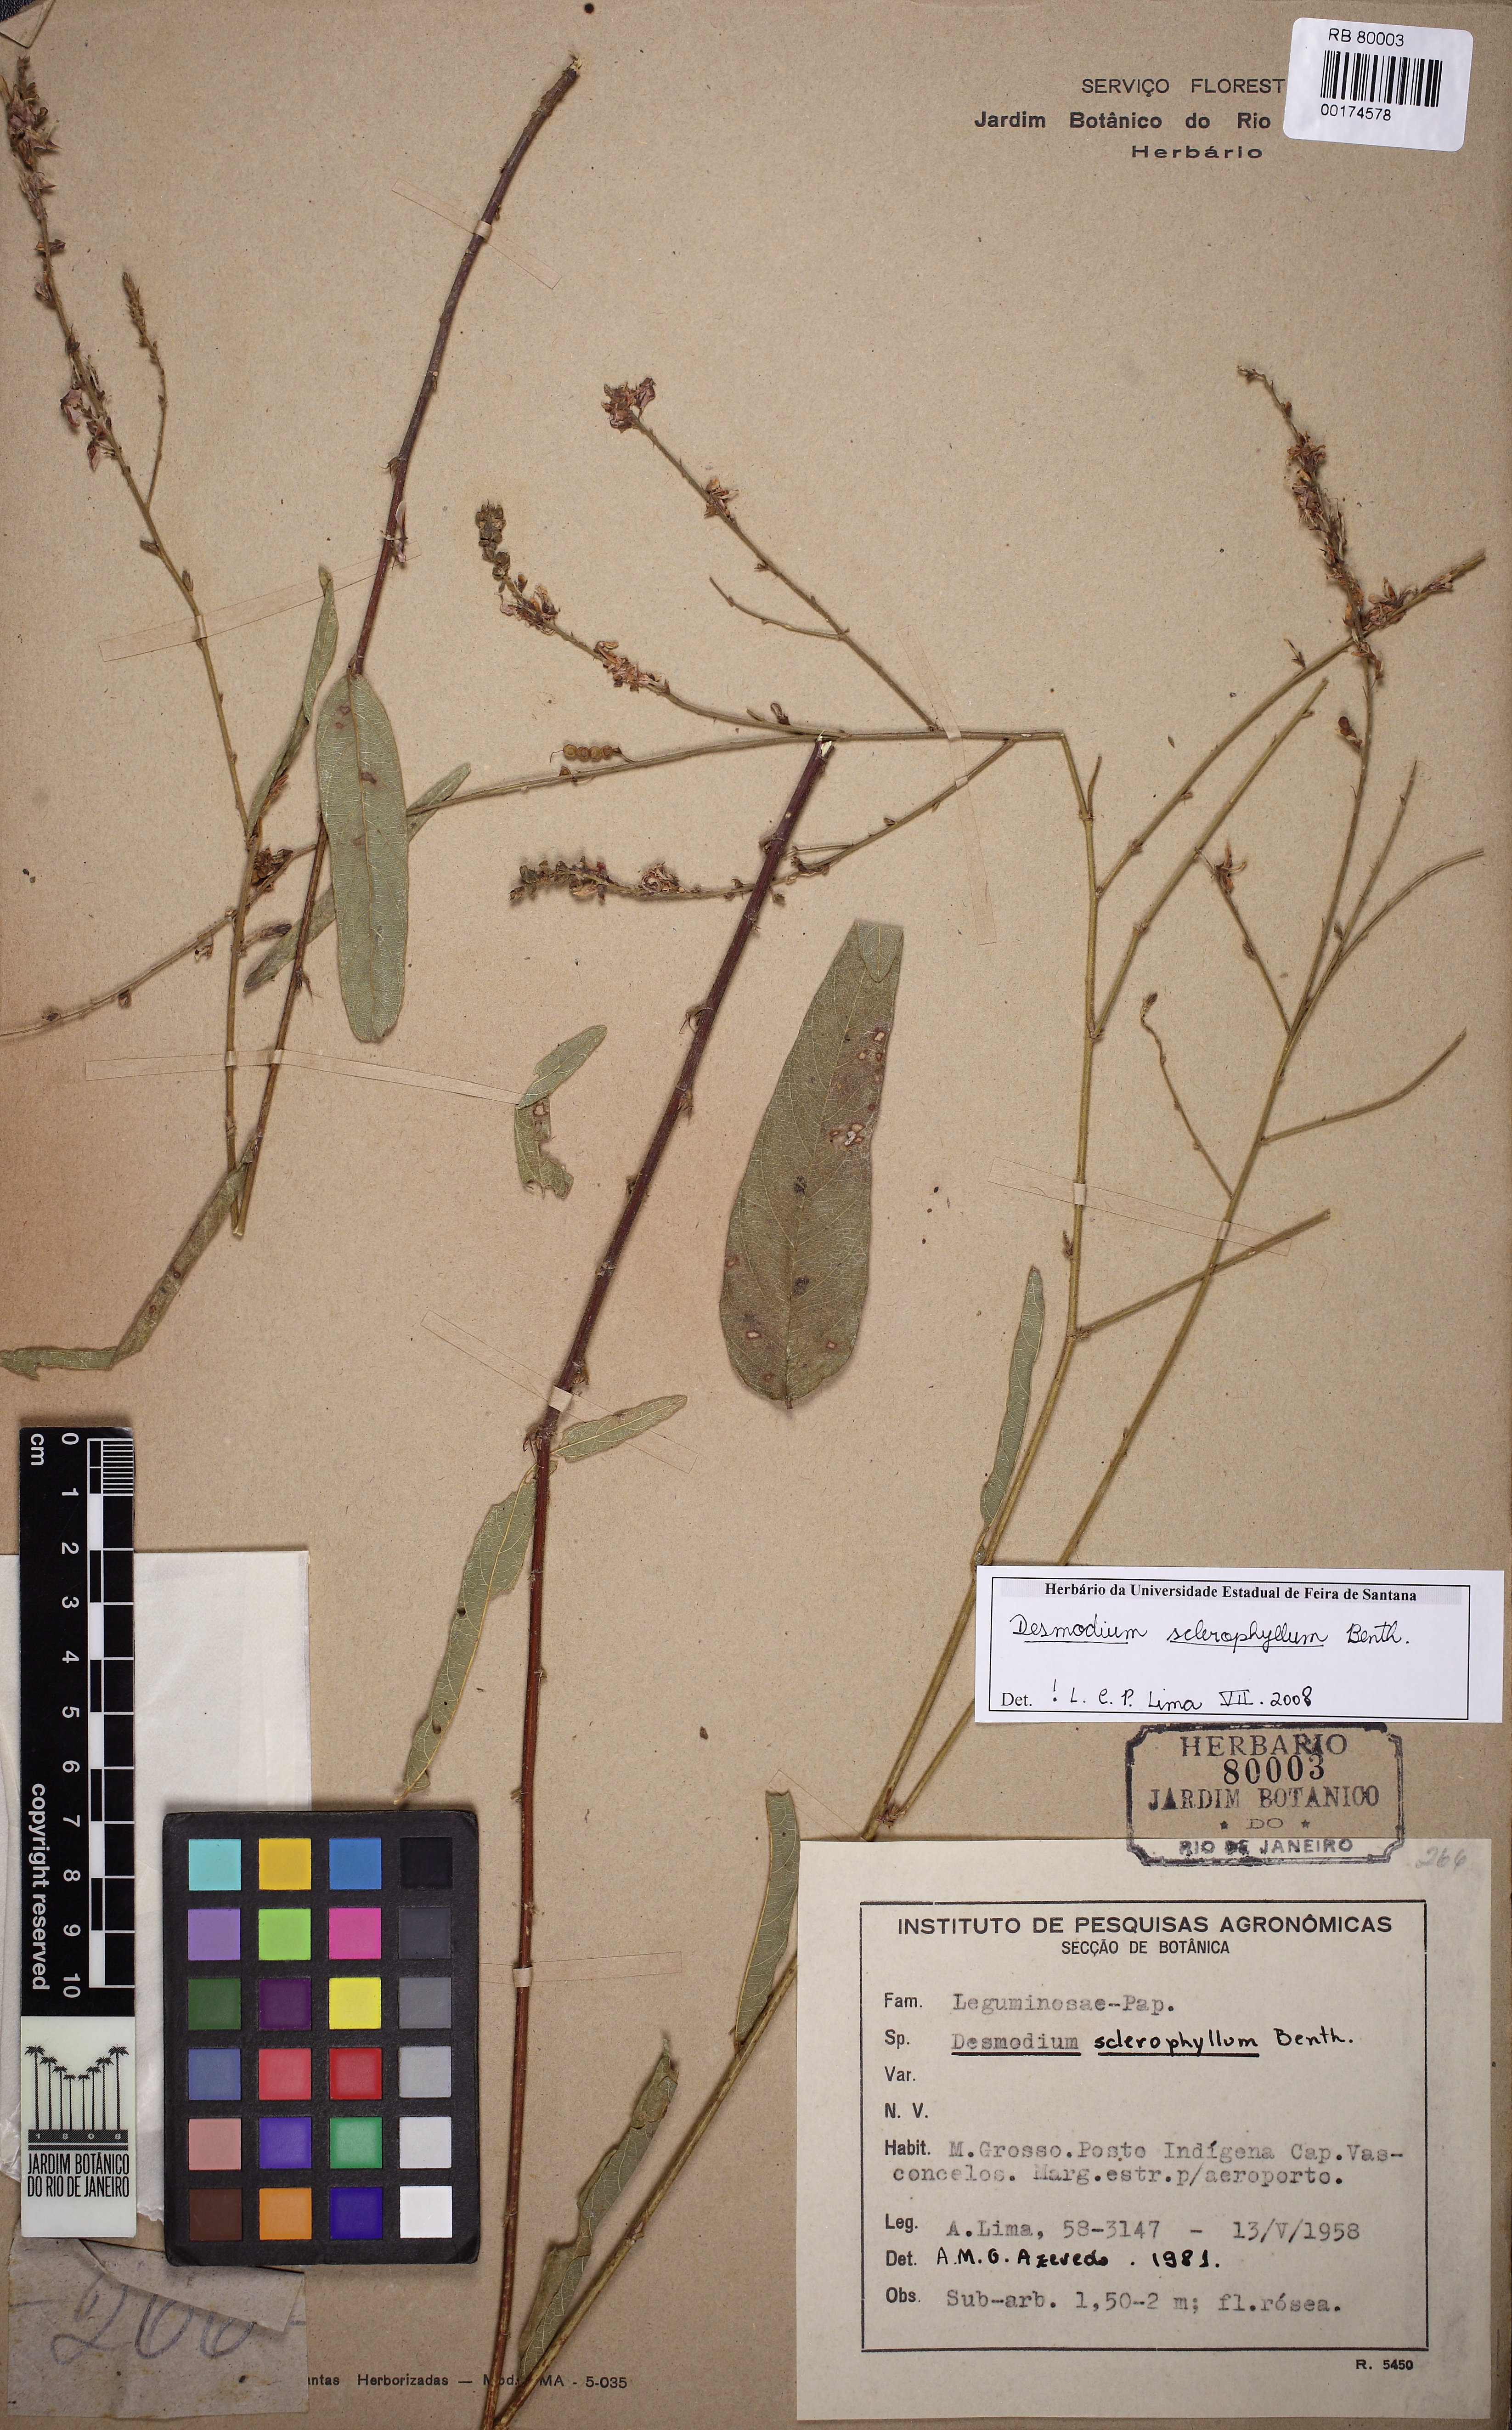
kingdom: Plantae
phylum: Tracheophyta
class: Magnoliopsida
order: Fabales
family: Fabaceae
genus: Desmodium
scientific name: Desmodium sclerophyllum
